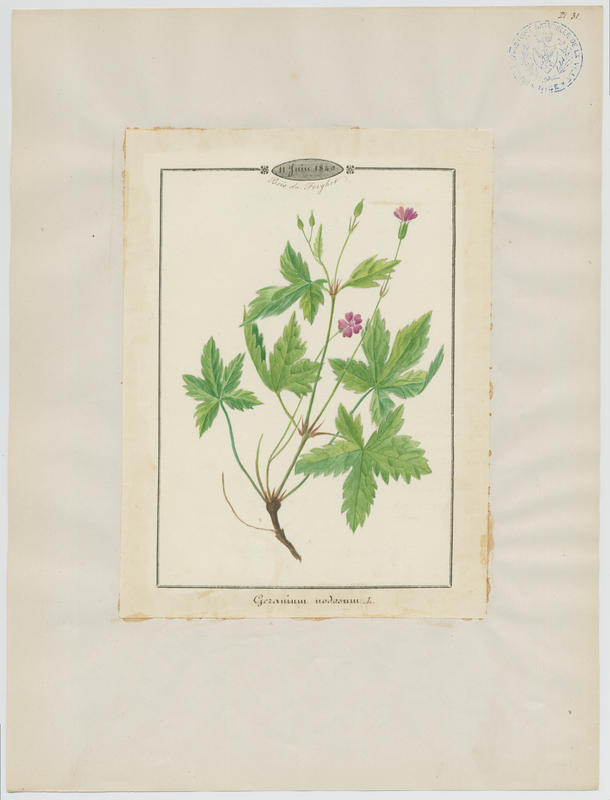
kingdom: Plantae
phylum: Tracheophyta
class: Magnoliopsida
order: Geraniales
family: Geraniaceae
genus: Geranium
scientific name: Geranium nodosum
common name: Knotted crane's-bill
